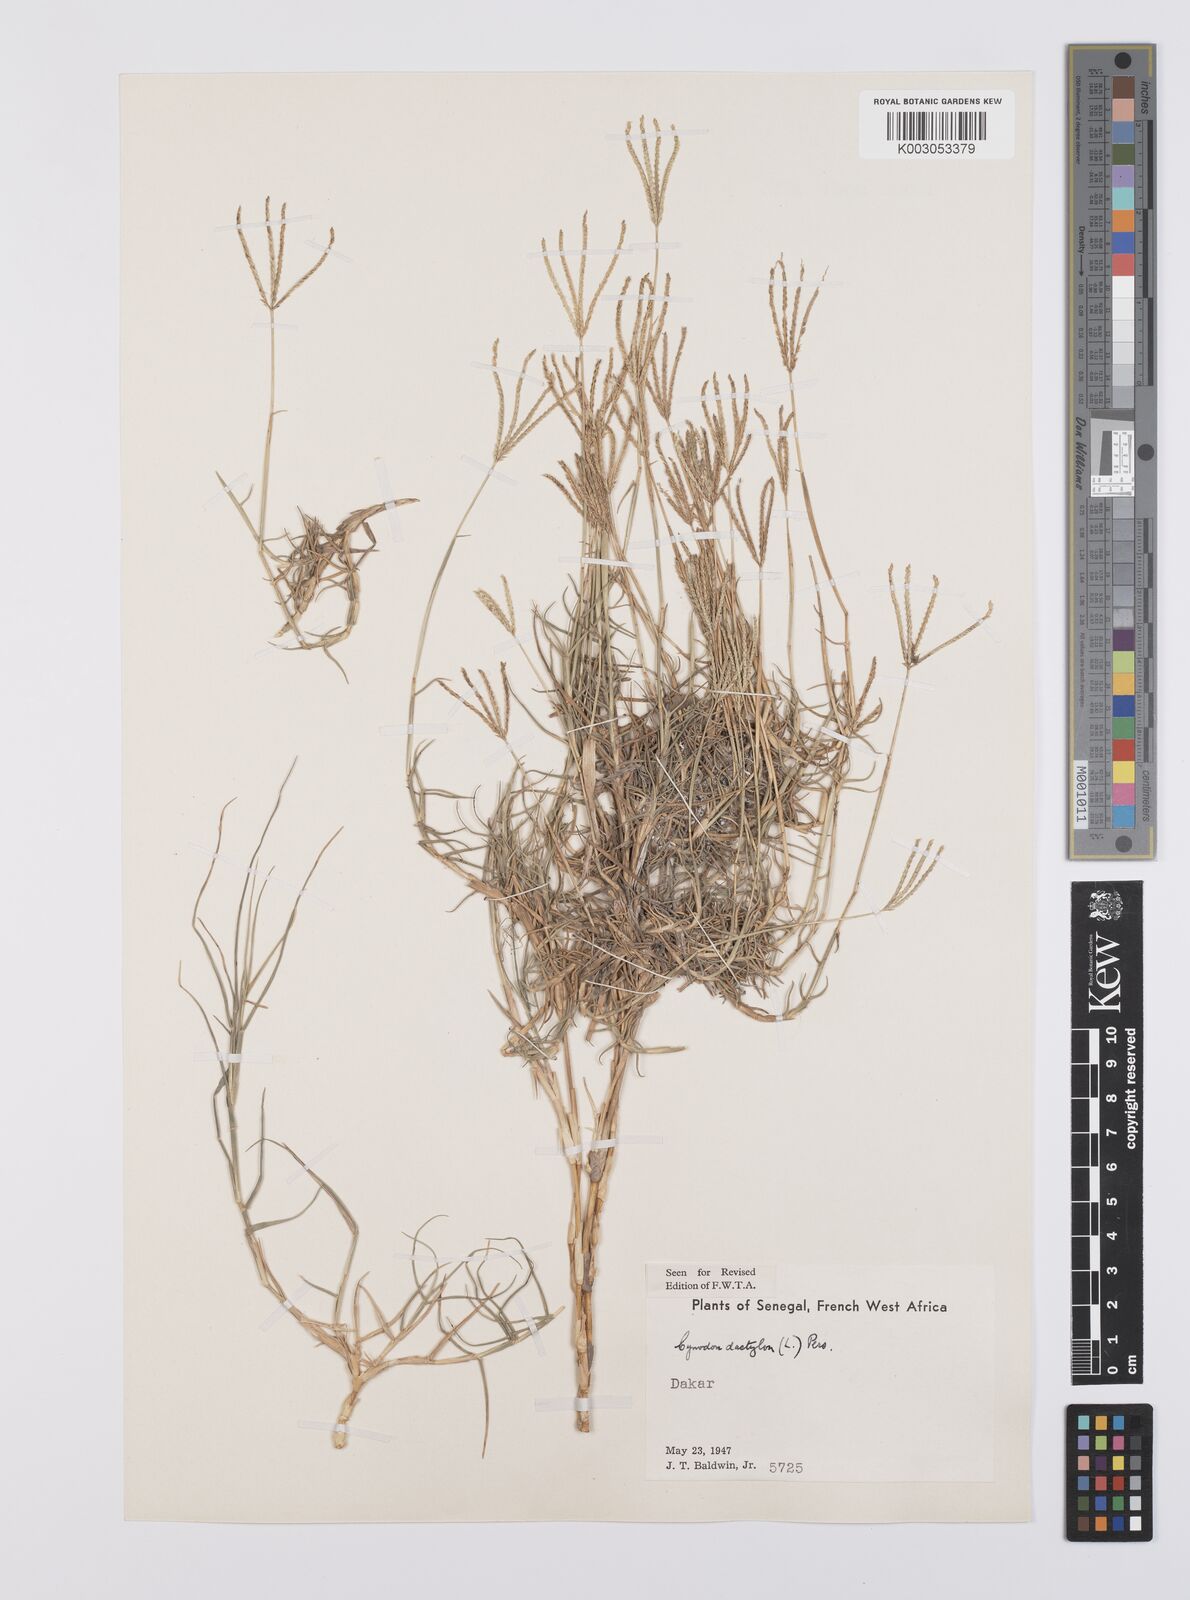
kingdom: Plantae
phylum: Tracheophyta
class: Liliopsida
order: Poales
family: Poaceae
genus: Cynodon
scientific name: Cynodon dactylon
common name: Bermuda grass
